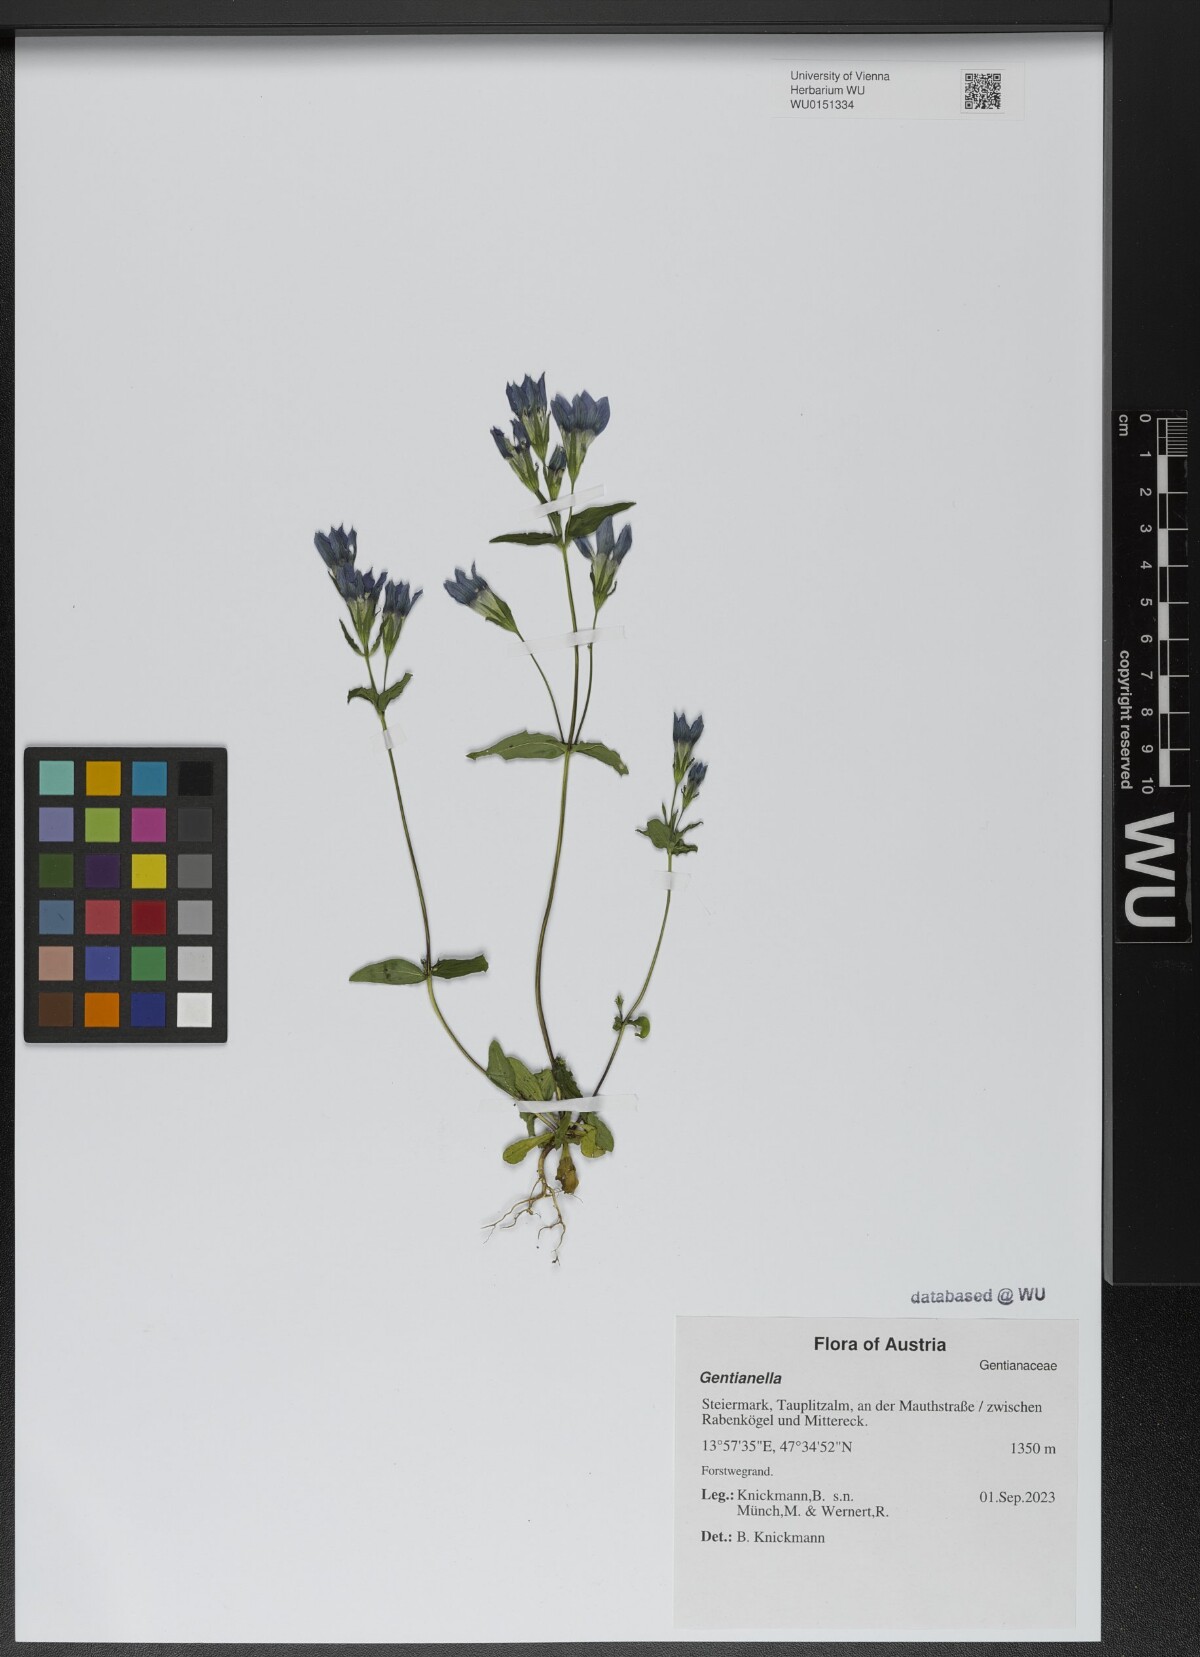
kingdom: Plantae
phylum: Tracheophyta
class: Magnoliopsida
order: Gentianales
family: Gentianaceae
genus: Gentianella
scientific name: Gentianella
